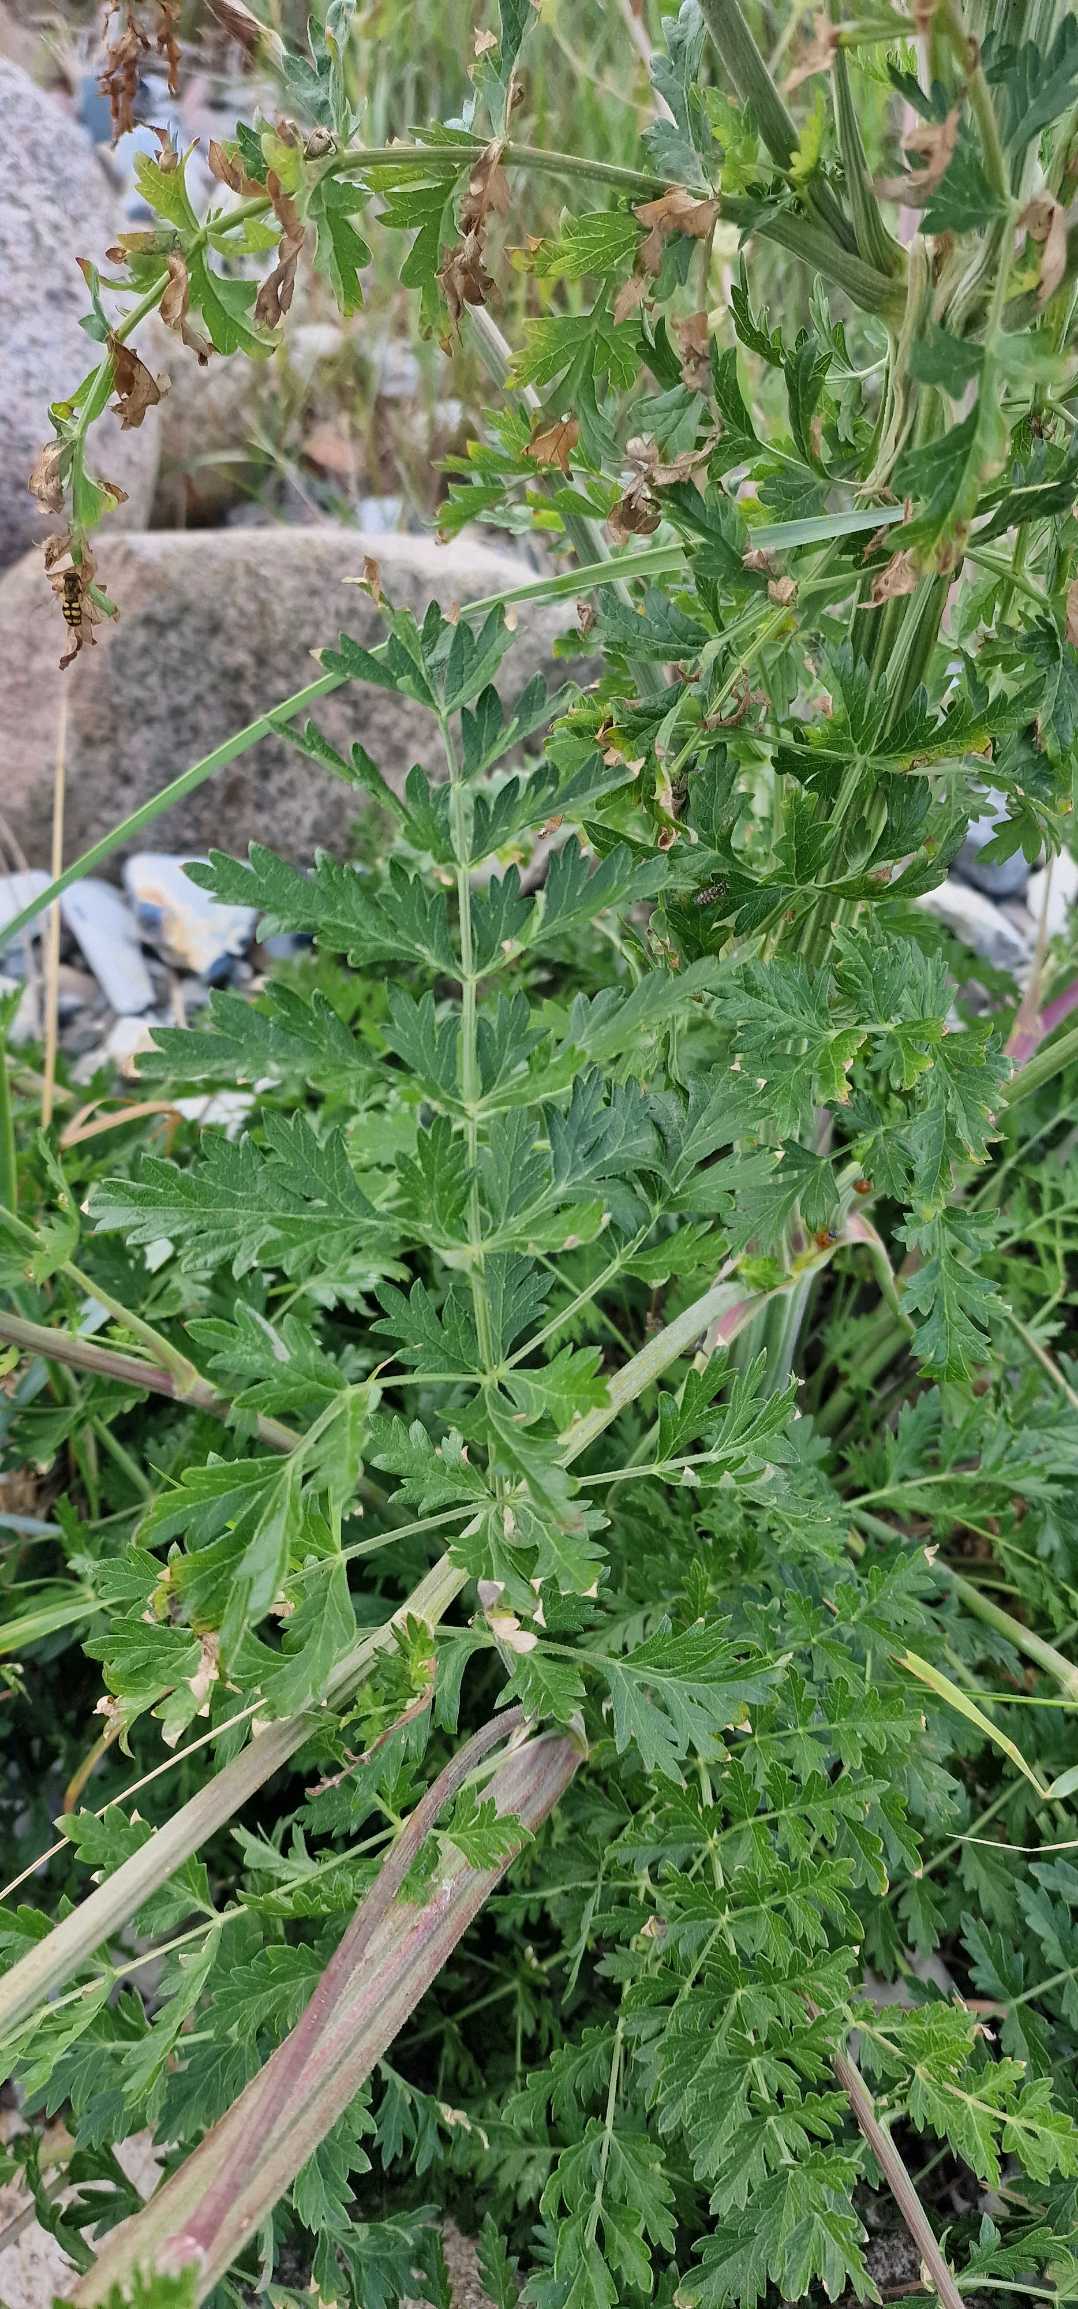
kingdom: Plantae
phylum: Tracheophyta
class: Magnoliopsida
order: Apiales
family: Apiaceae
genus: Seseli
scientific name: Seseli libanotis
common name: Hjorterod
